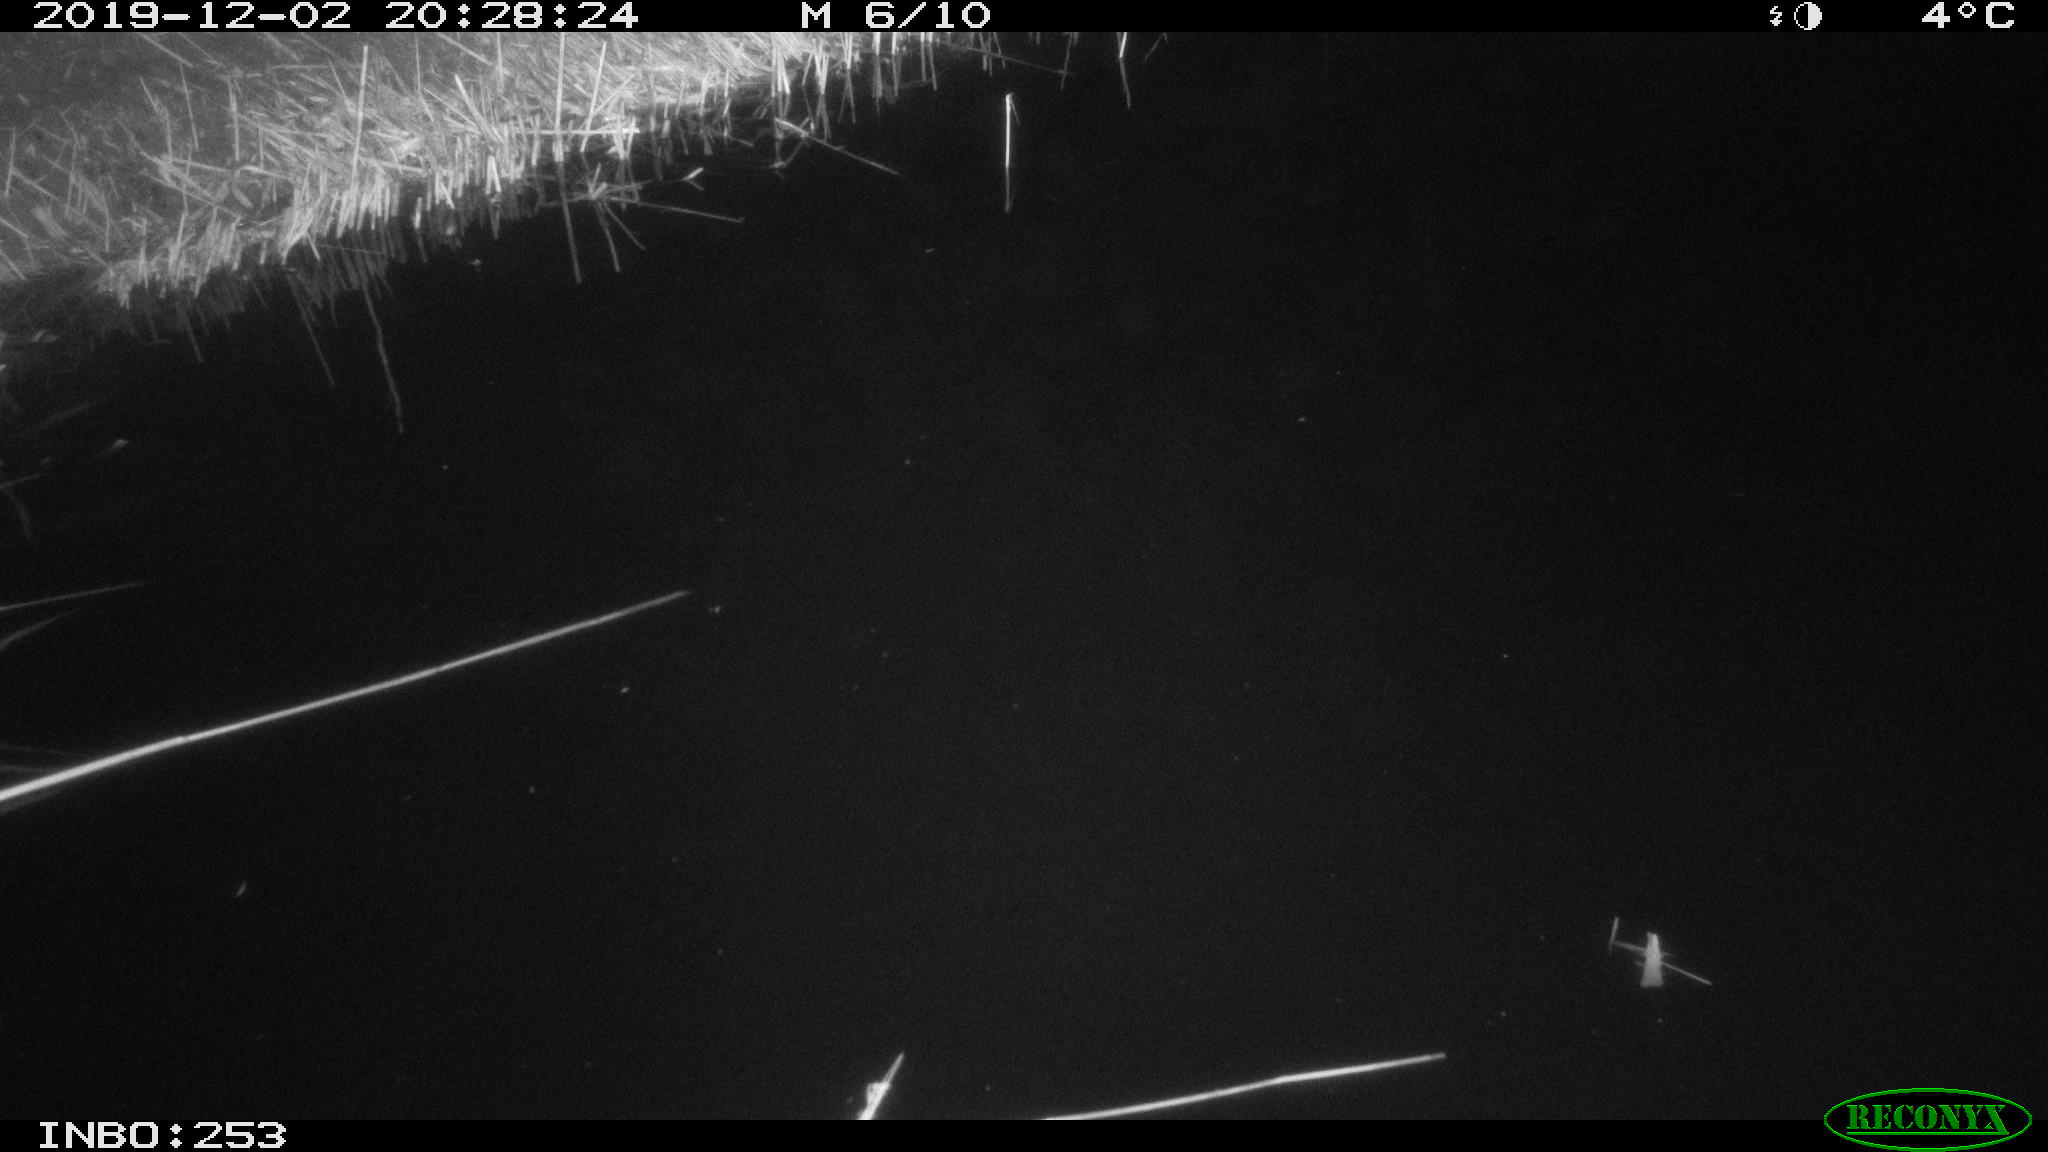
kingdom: Animalia
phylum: Chordata
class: Mammalia
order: Rodentia
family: Muridae
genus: Rattus
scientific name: Rattus norvegicus
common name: Brown rat
